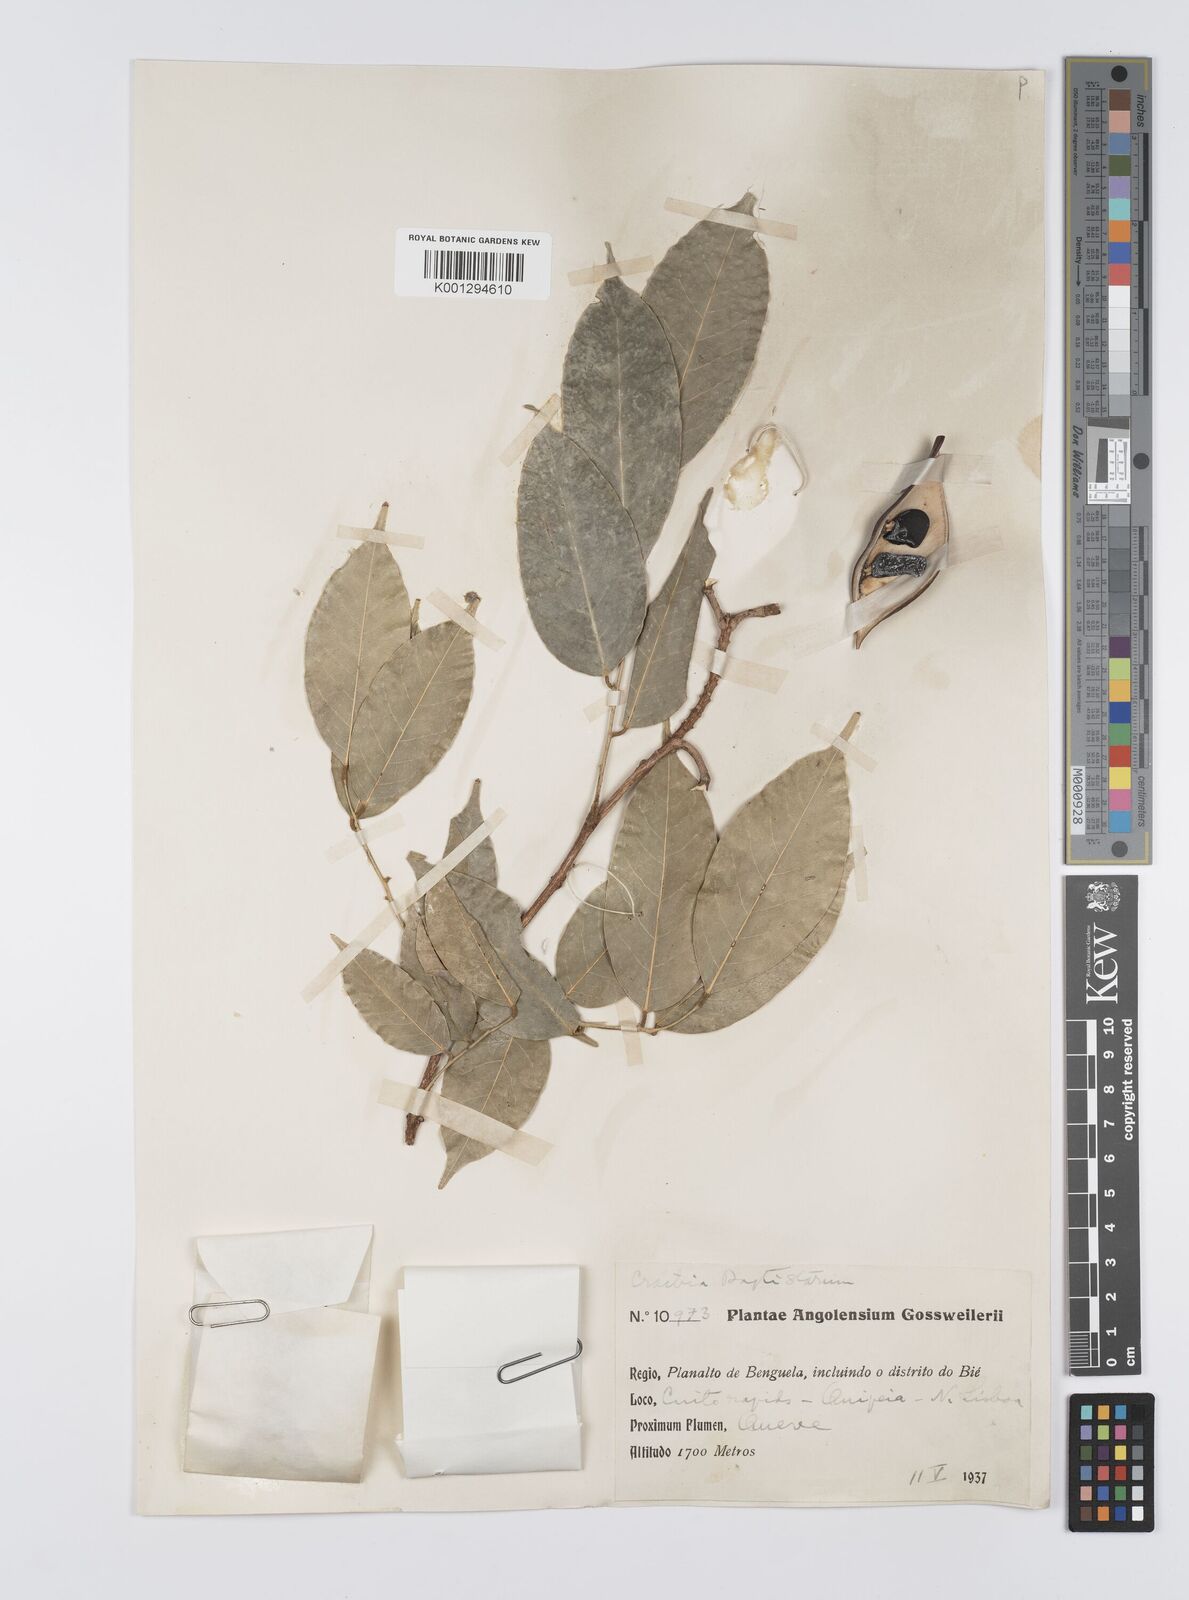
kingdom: Plantae
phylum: Tracheophyta
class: Magnoliopsida
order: Fabales
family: Fabaceae
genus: Craibia
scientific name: Craibia brevicaudata
